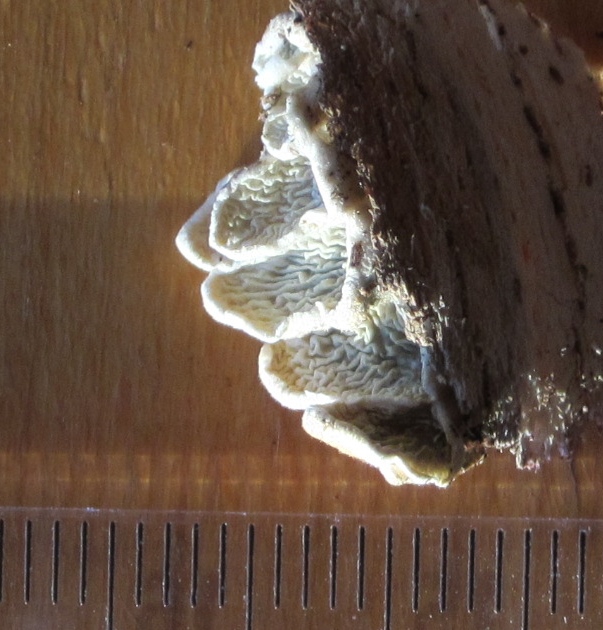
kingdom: Fungi
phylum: Basidiomycota
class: Agaricomycetes
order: Amylocorticiales
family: Amylocorticiaceae
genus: Plicaturopsis
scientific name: Plicaturopsis crispa
